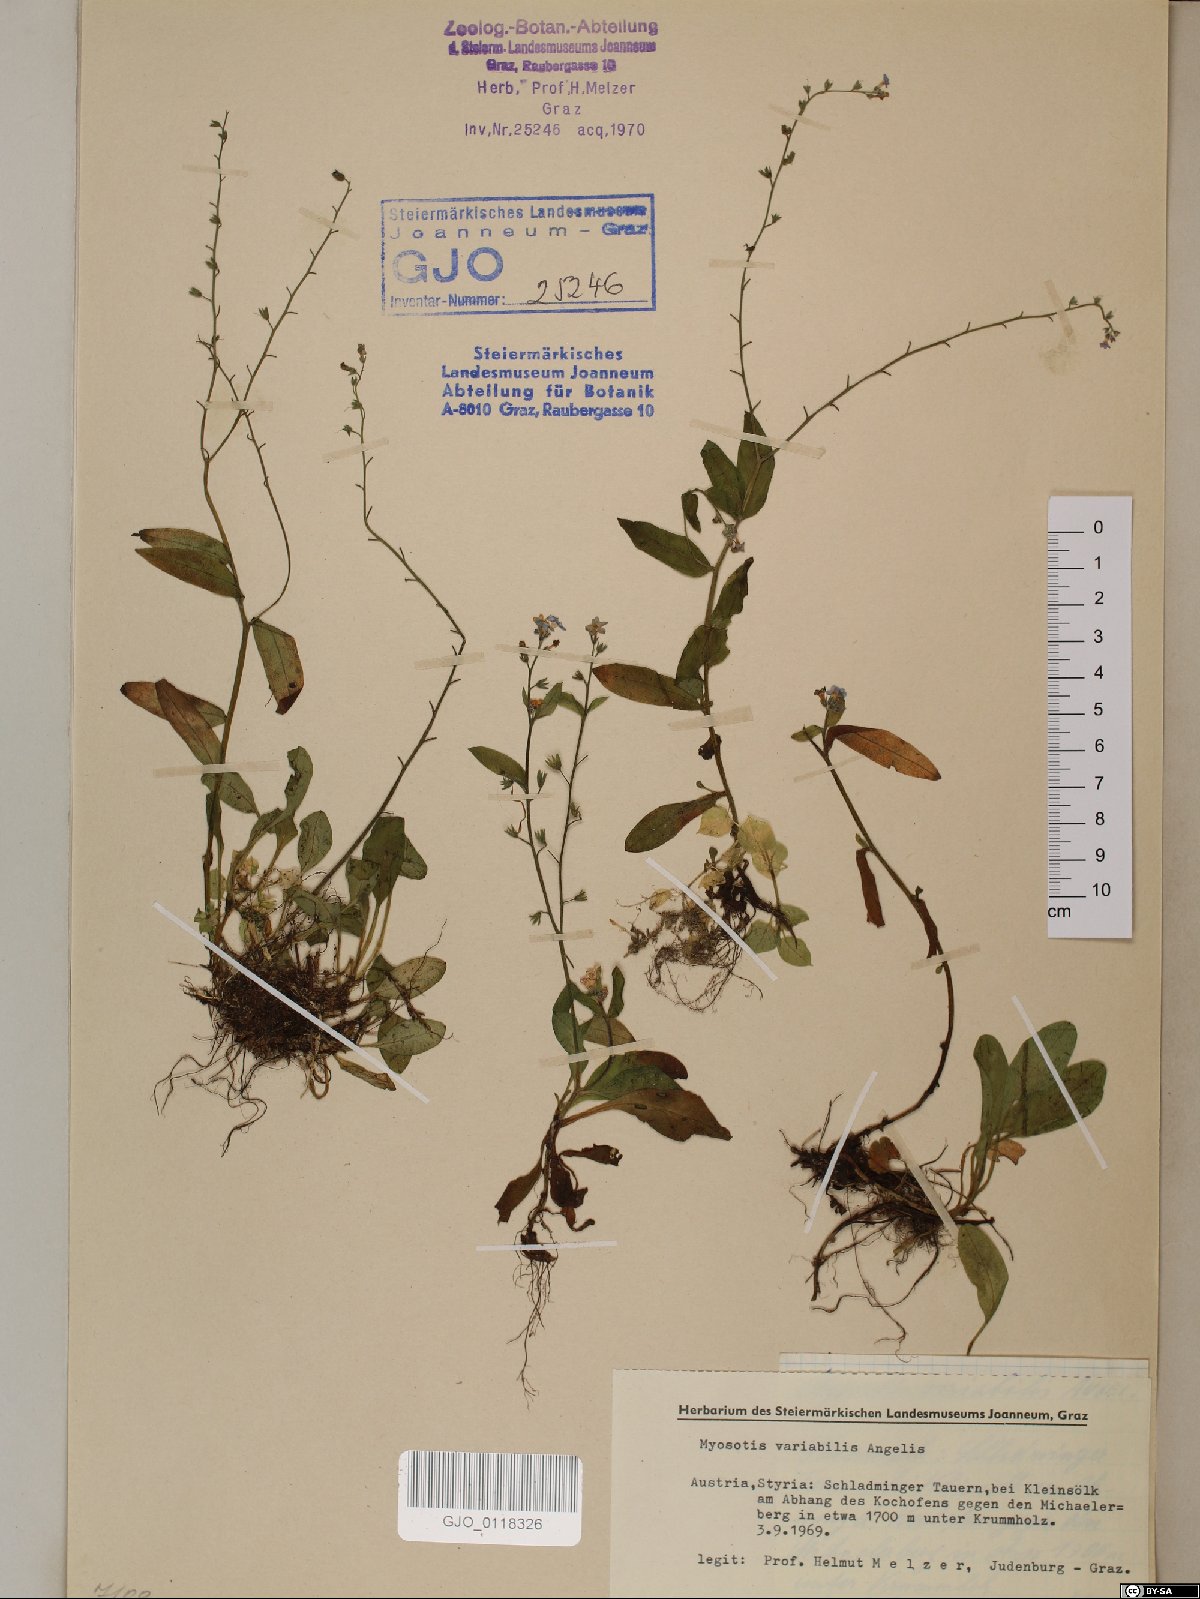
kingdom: Plantae
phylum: Tracheophyta
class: Magnoliopsida
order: Boraginales
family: Boraginaceae
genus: Myosotis
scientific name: Myosotis decumbens
